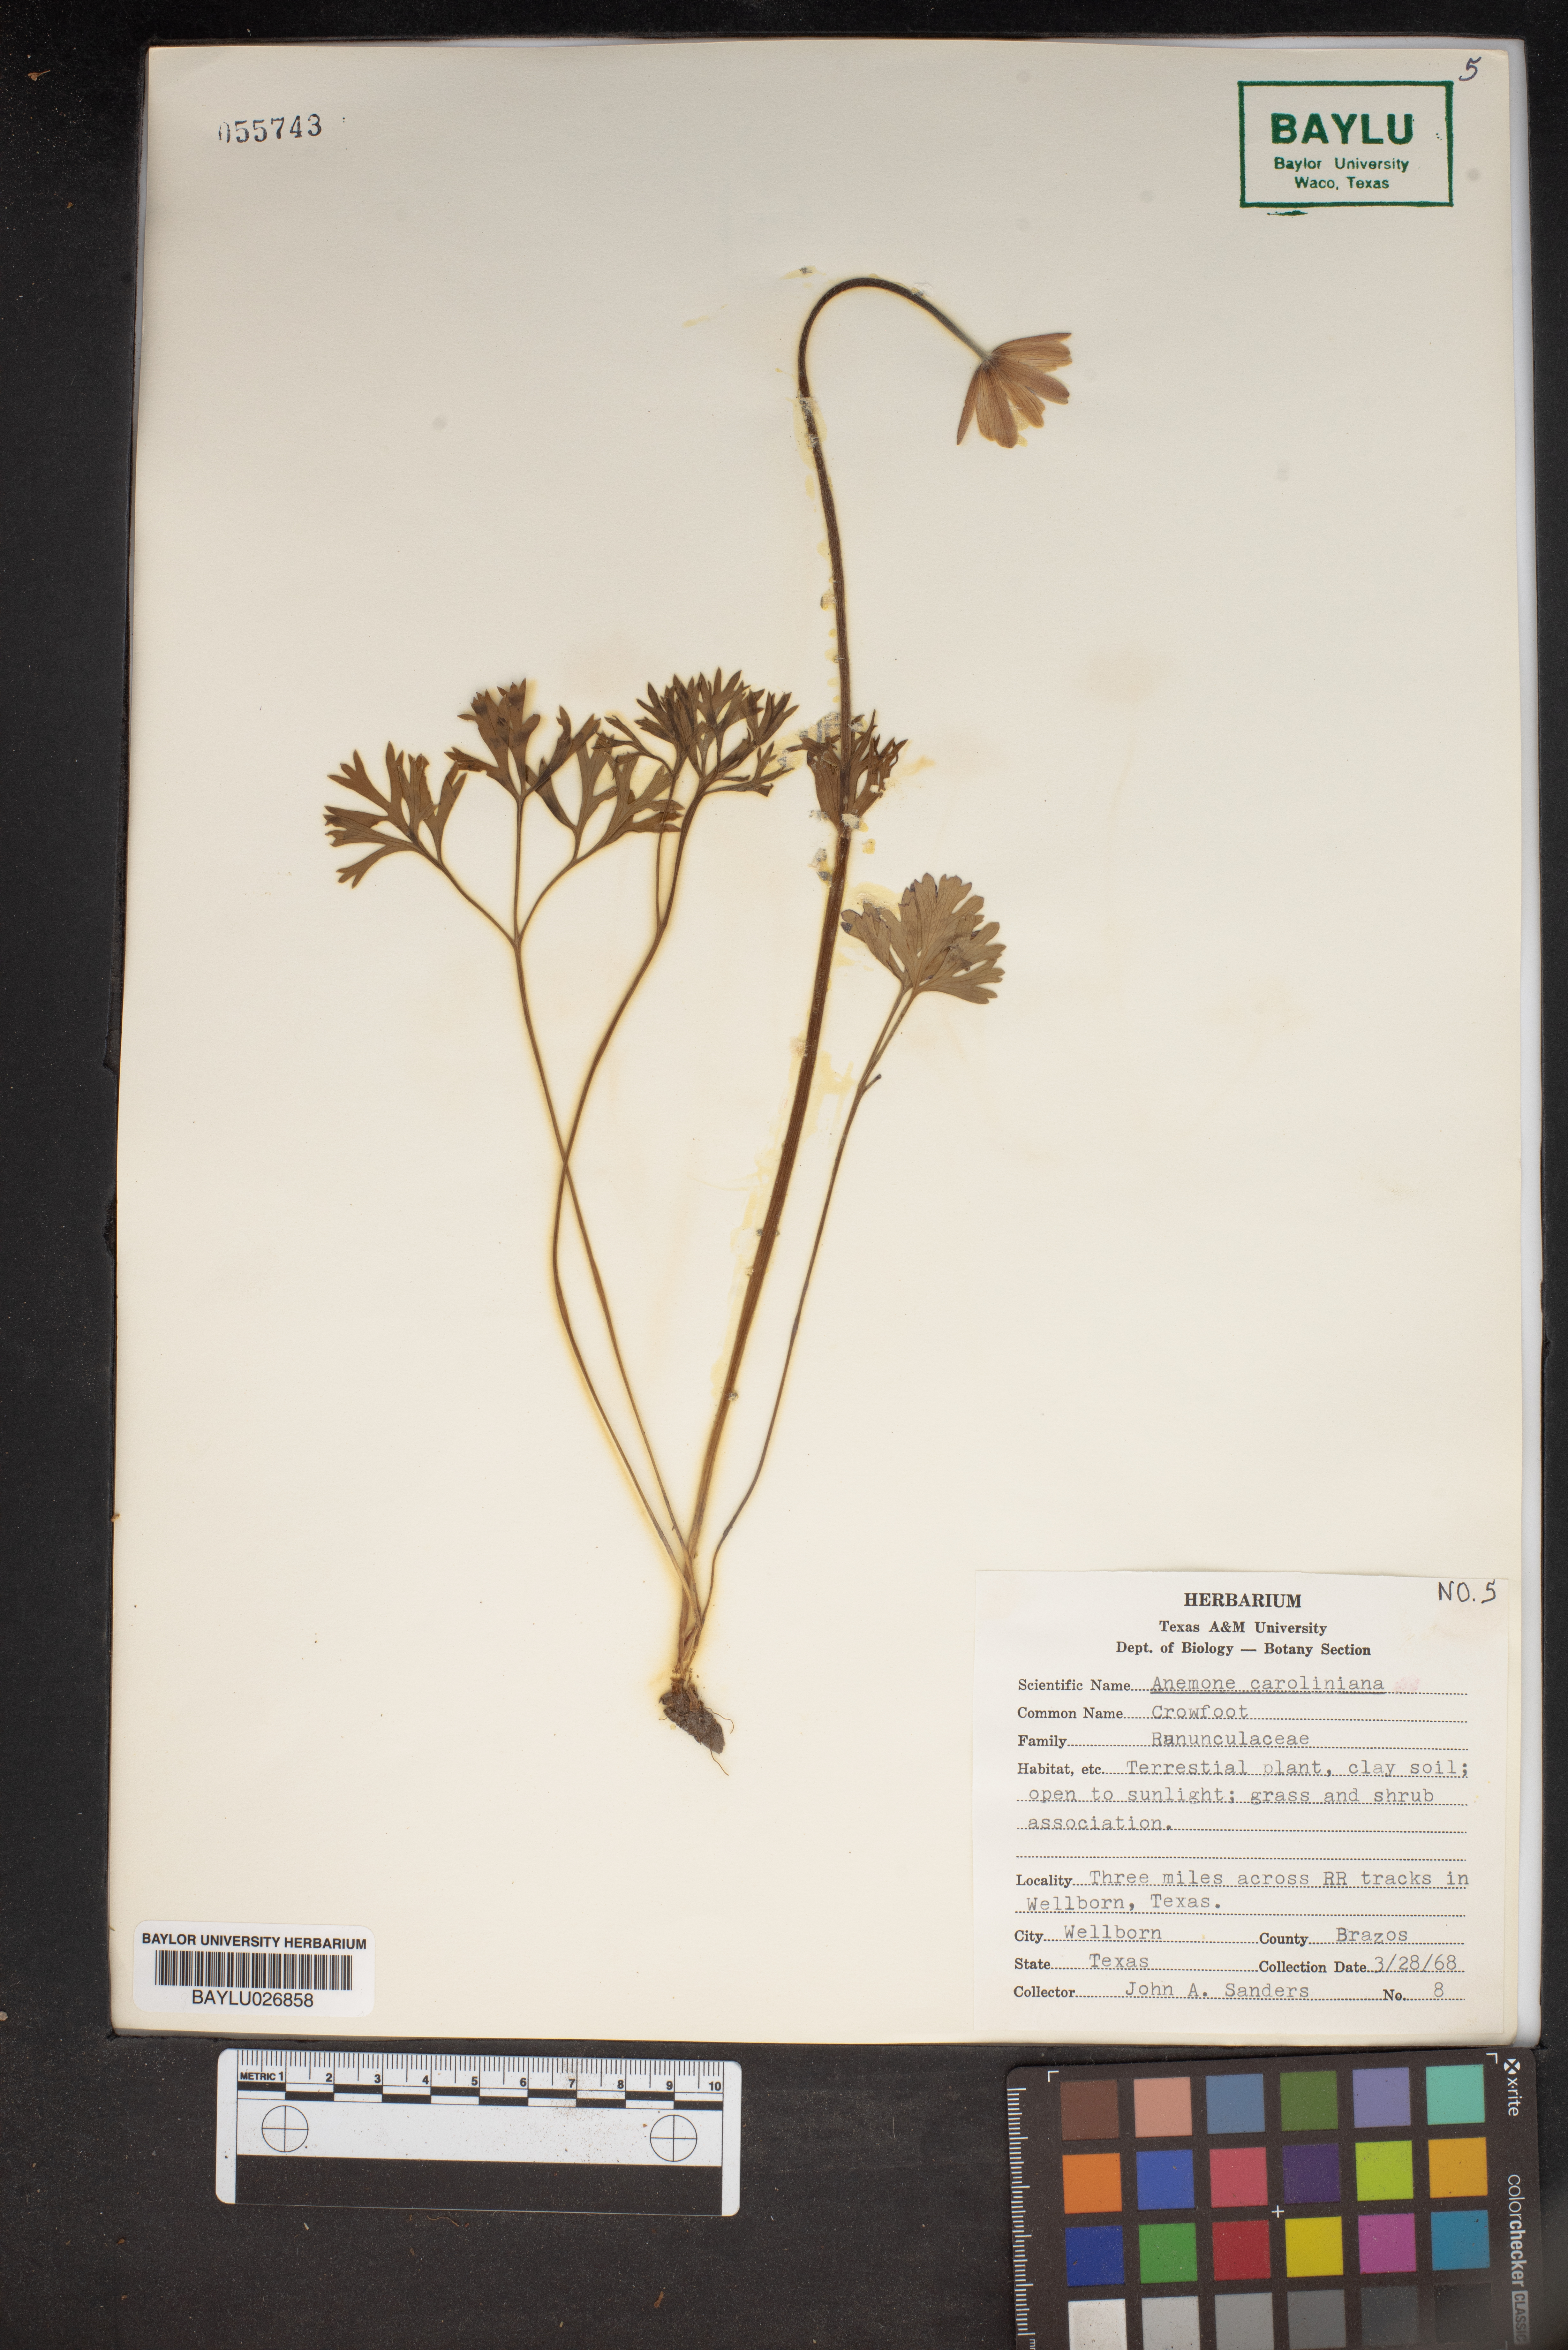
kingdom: Plantae
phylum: Tracheophyta
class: Magnoliopsida
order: Ranunculales
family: Ranunculaceae
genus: Anemone
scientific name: Anemone caroliniana
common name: Carolina anemone
